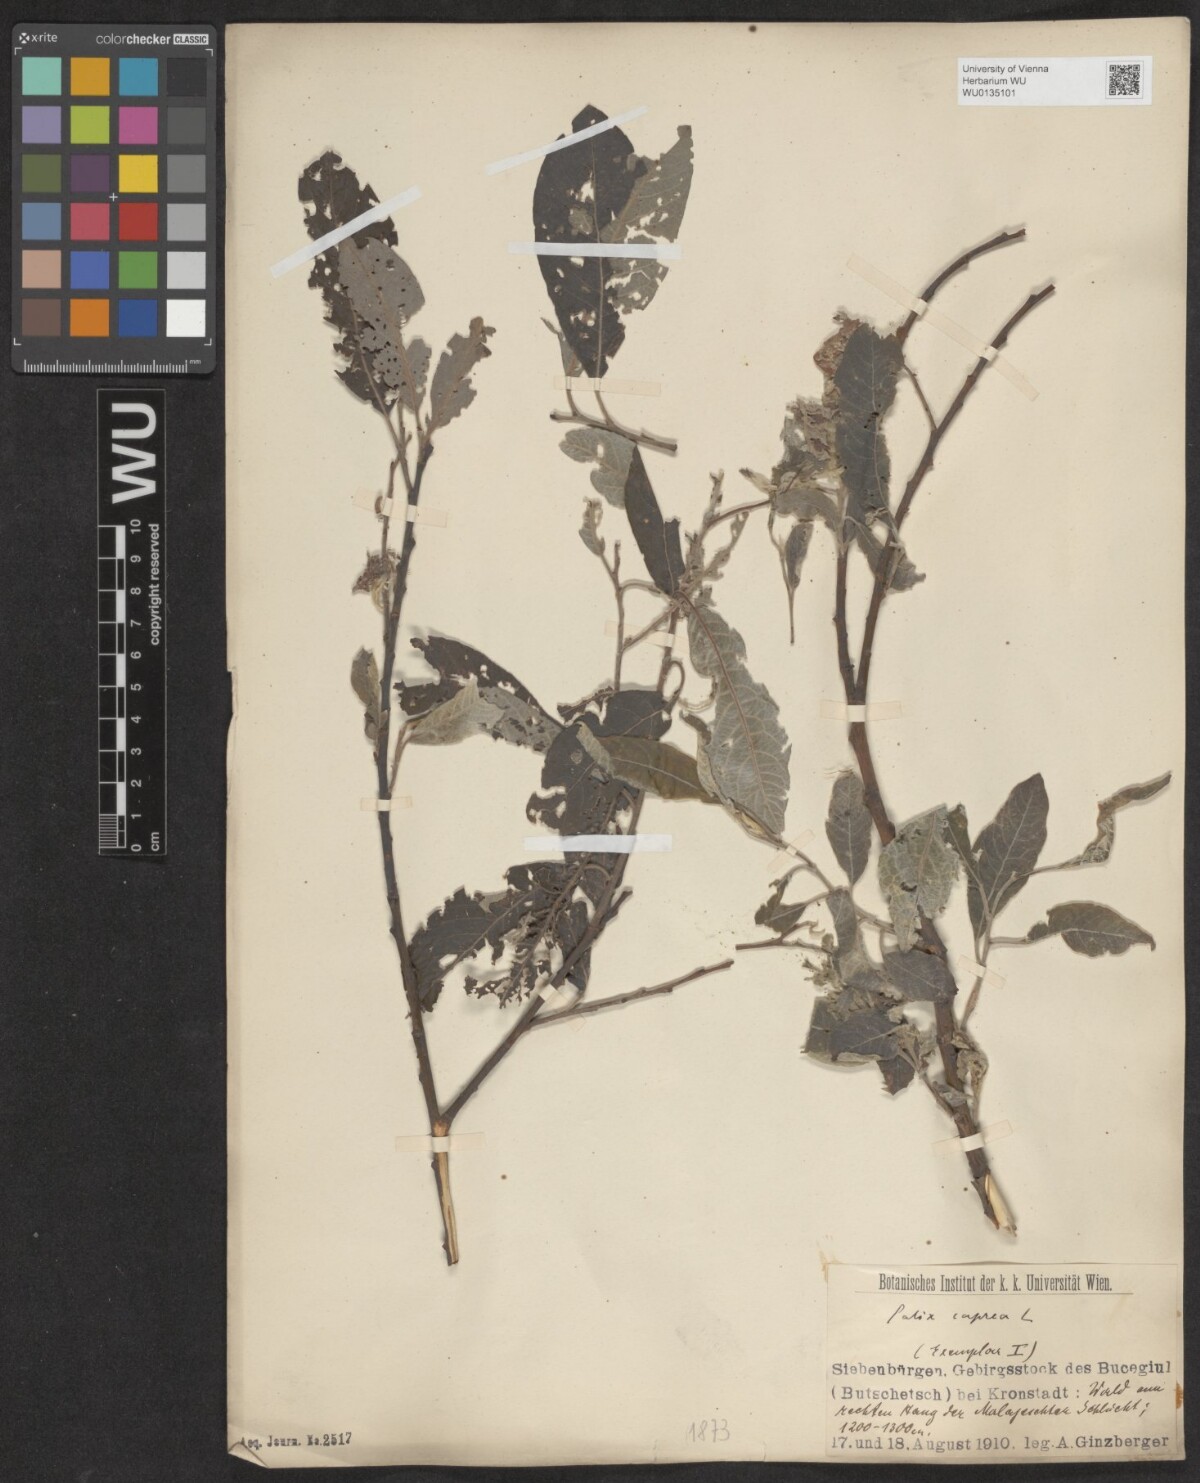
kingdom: Plantae
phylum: Tracheophyta
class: Magnoliopsida
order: Malpighiales
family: Salicaceae
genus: Salix
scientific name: Salix caprea
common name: Goat willow
